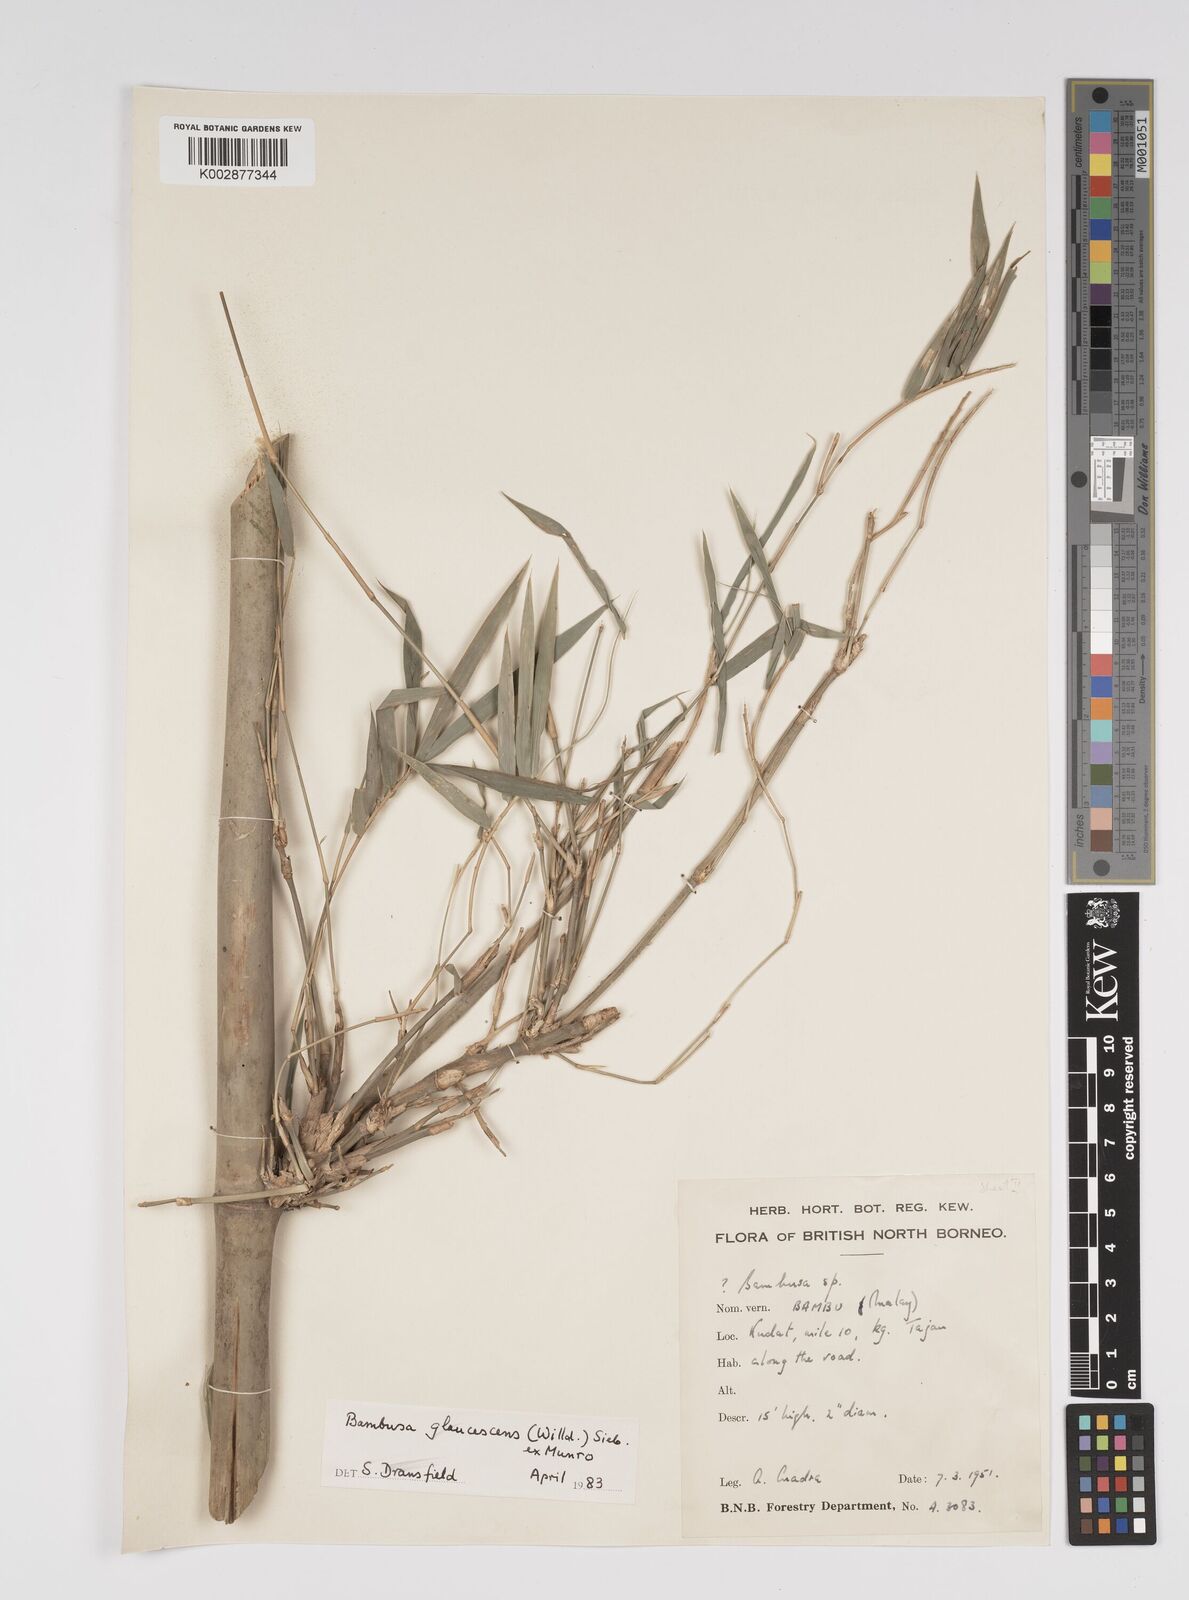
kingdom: Plantae
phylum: Tracheophyta
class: Liliopsida
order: Poales
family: Poaceae
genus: Bambusa
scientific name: Bambusa multiplex
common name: Hedge bamboo
